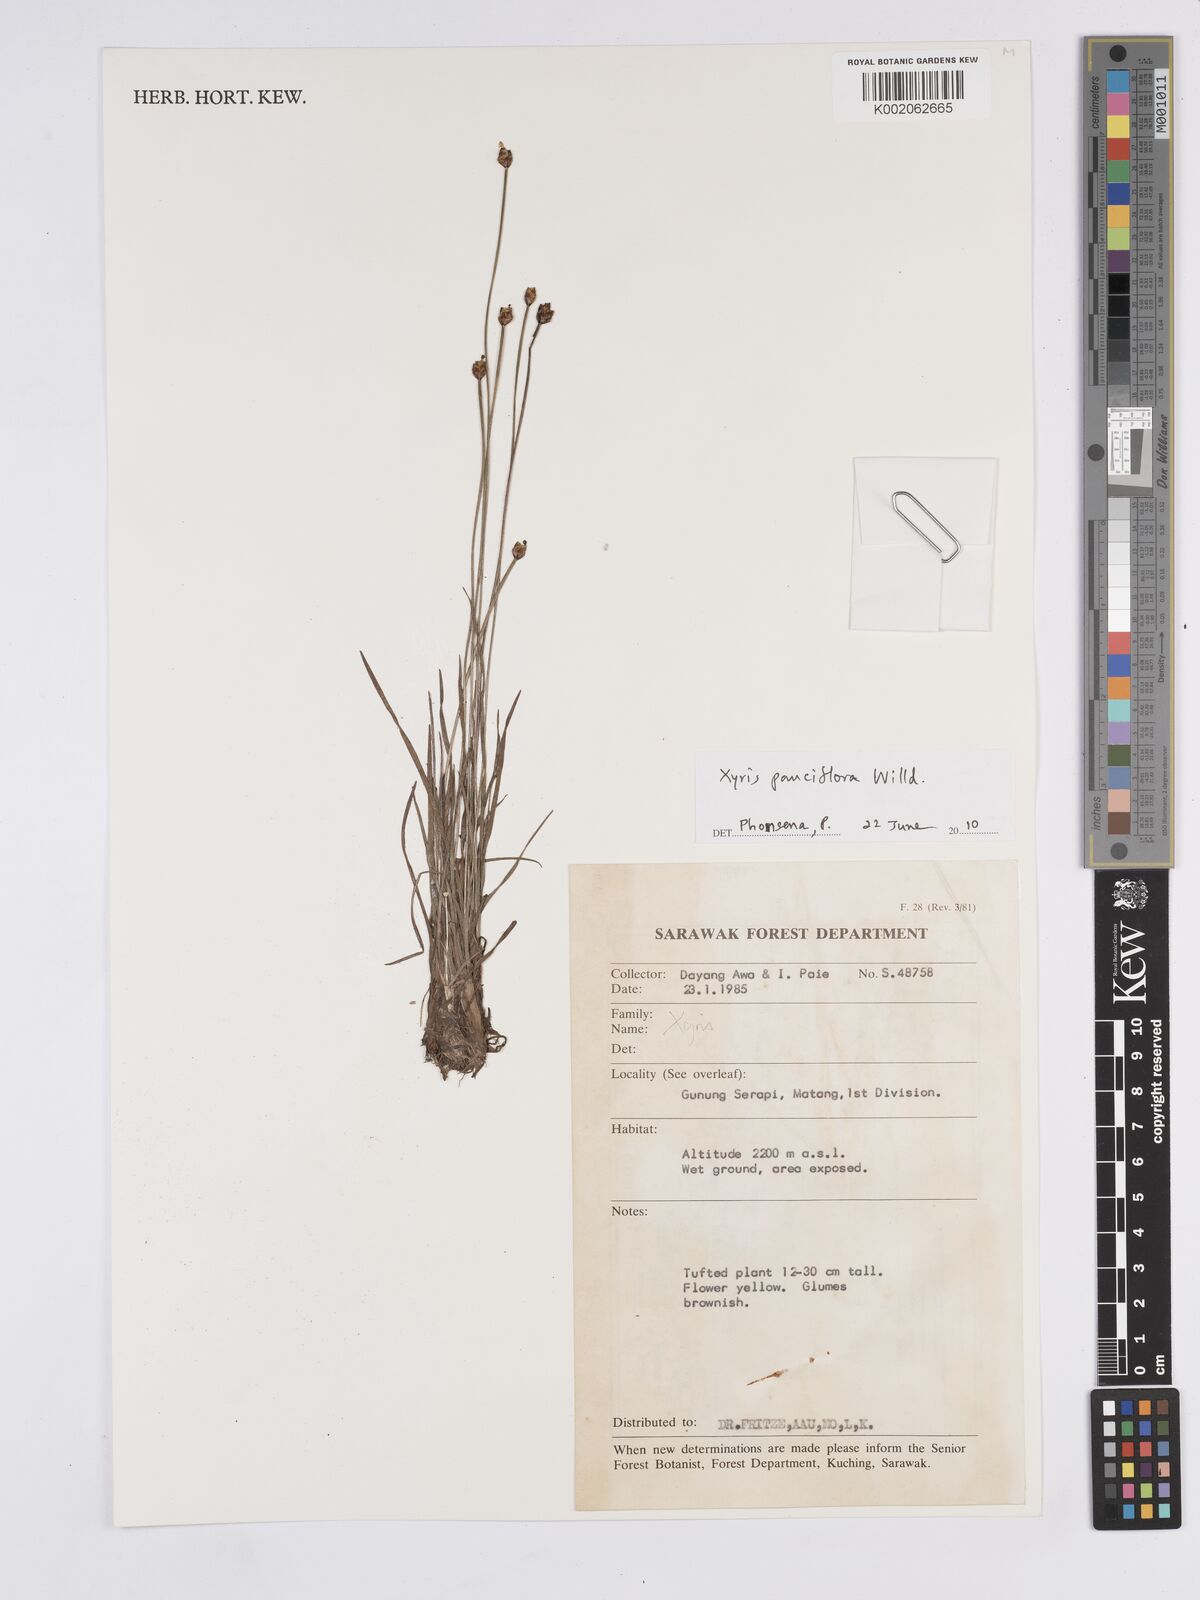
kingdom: Plantae
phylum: Tracheophyta
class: Liliopsida
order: Poales
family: Xyridaceae
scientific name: Xyridaceae
